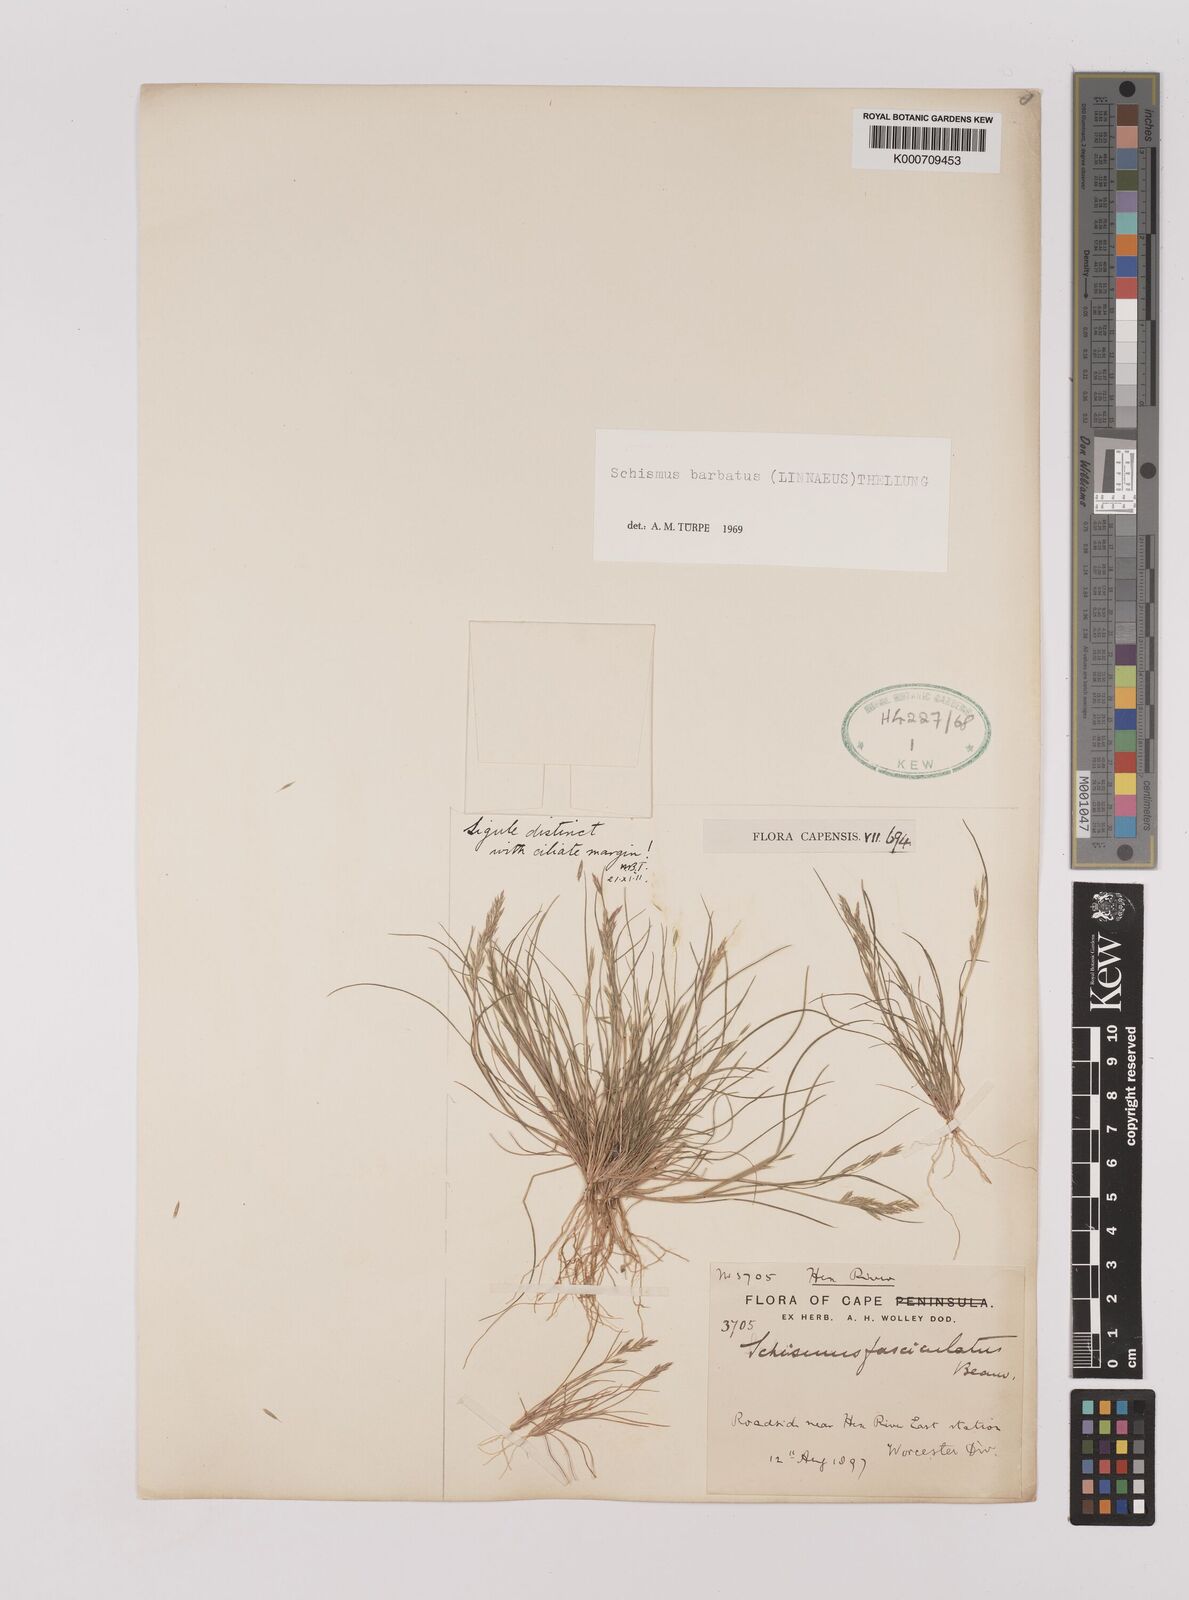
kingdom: Plantae
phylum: Tracheophyta
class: Liliopsida
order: Poales
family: Poaceae
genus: Schismus
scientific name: Schismus barbatus
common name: Kelch-grass
